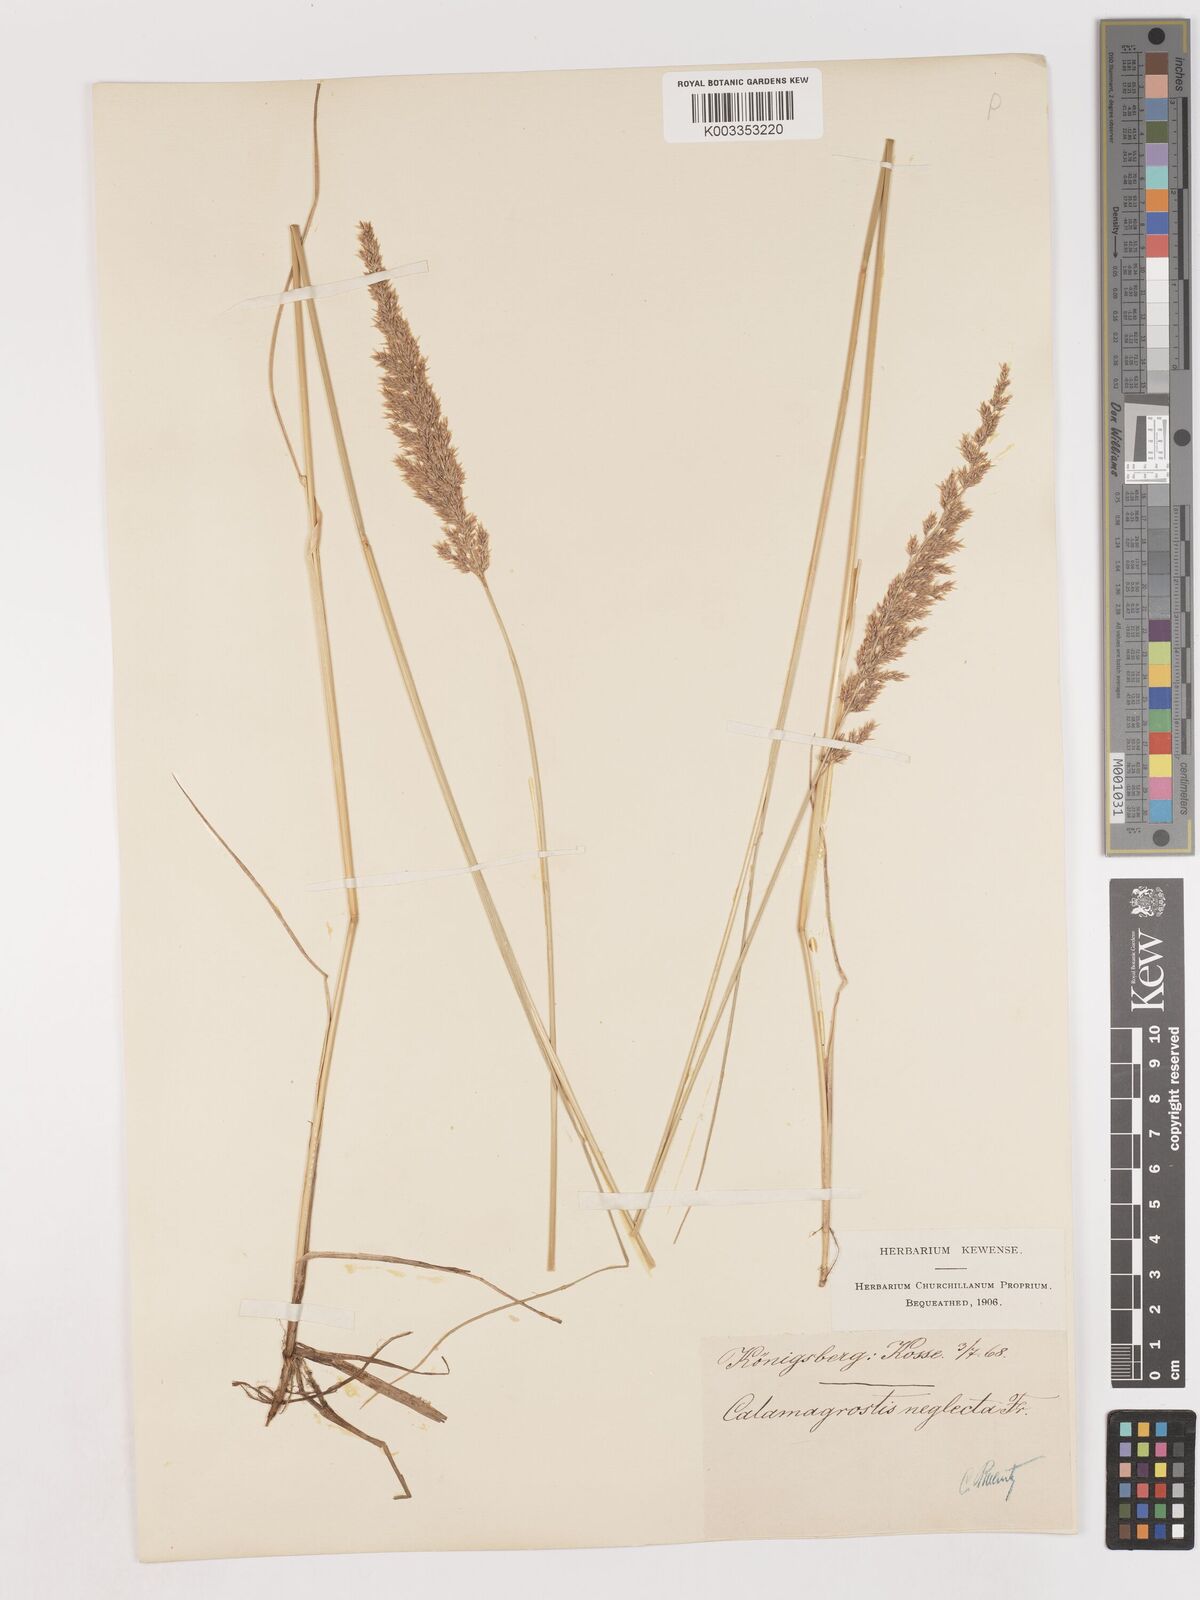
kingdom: Plantae
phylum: Tracheophyta
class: Liliopsida
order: Poales
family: Poaceae
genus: Cinnagrostis
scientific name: Cinnagrostis recta
